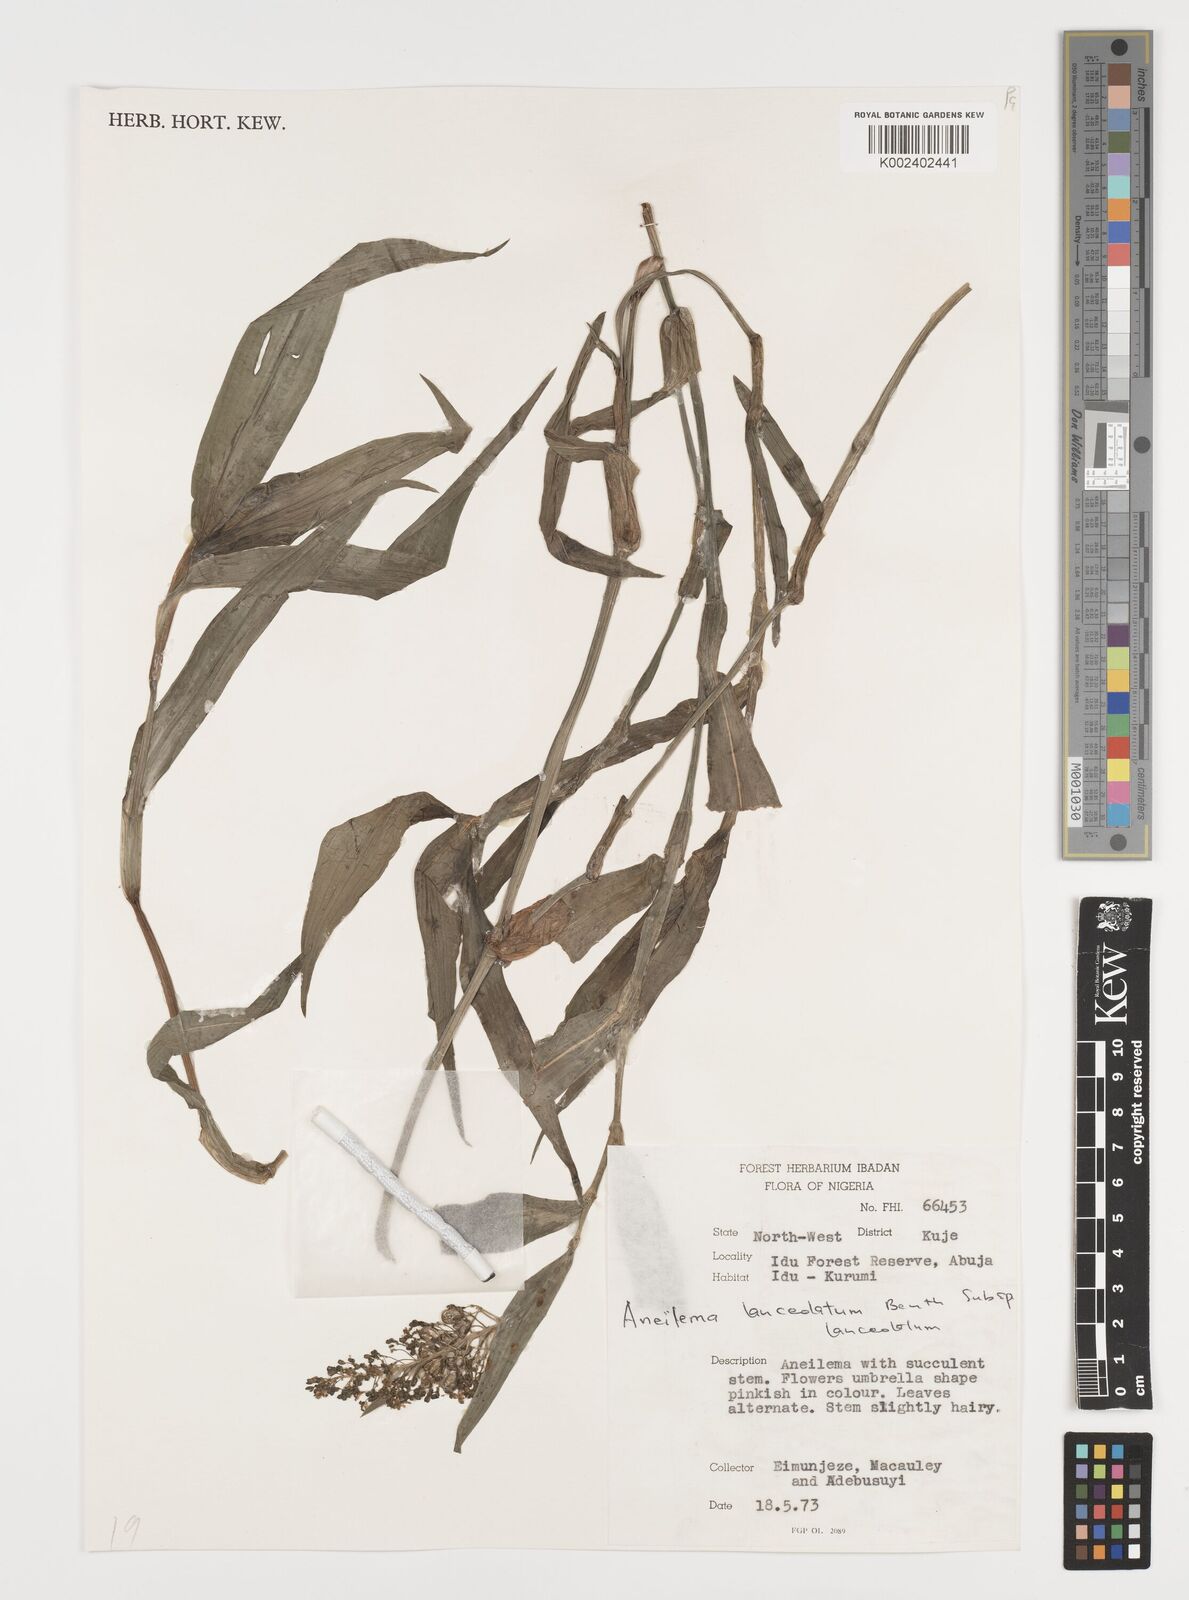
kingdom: Plantae
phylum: Tracheophyta
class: Liliopsida
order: Commelinales
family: Commelinaceae
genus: Aneilema
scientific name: Aneilema lanceolatum
